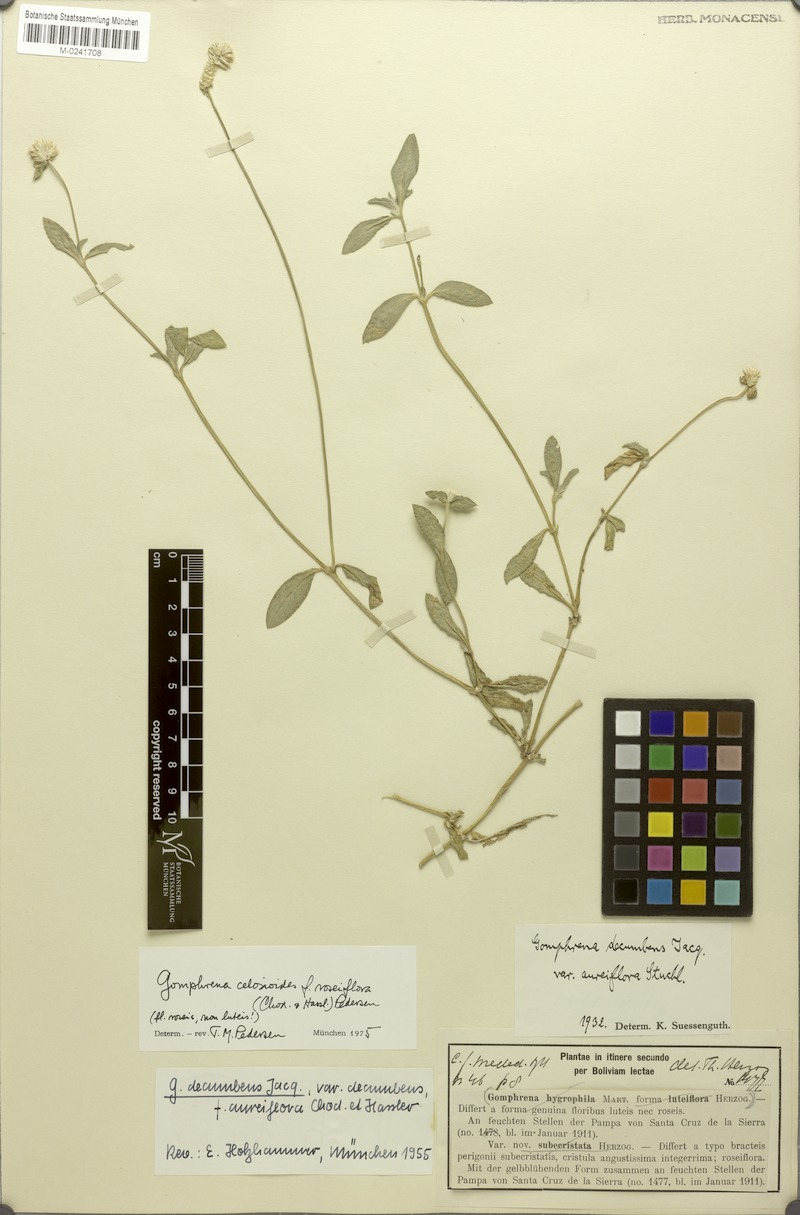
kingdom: Plantae
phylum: Tracheophyta
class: Magnoliopsida
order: Caryophyllales
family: Amaranthaceae
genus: Gomphrena
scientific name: Gomphrena celosioides
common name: Gomphrena-weed
